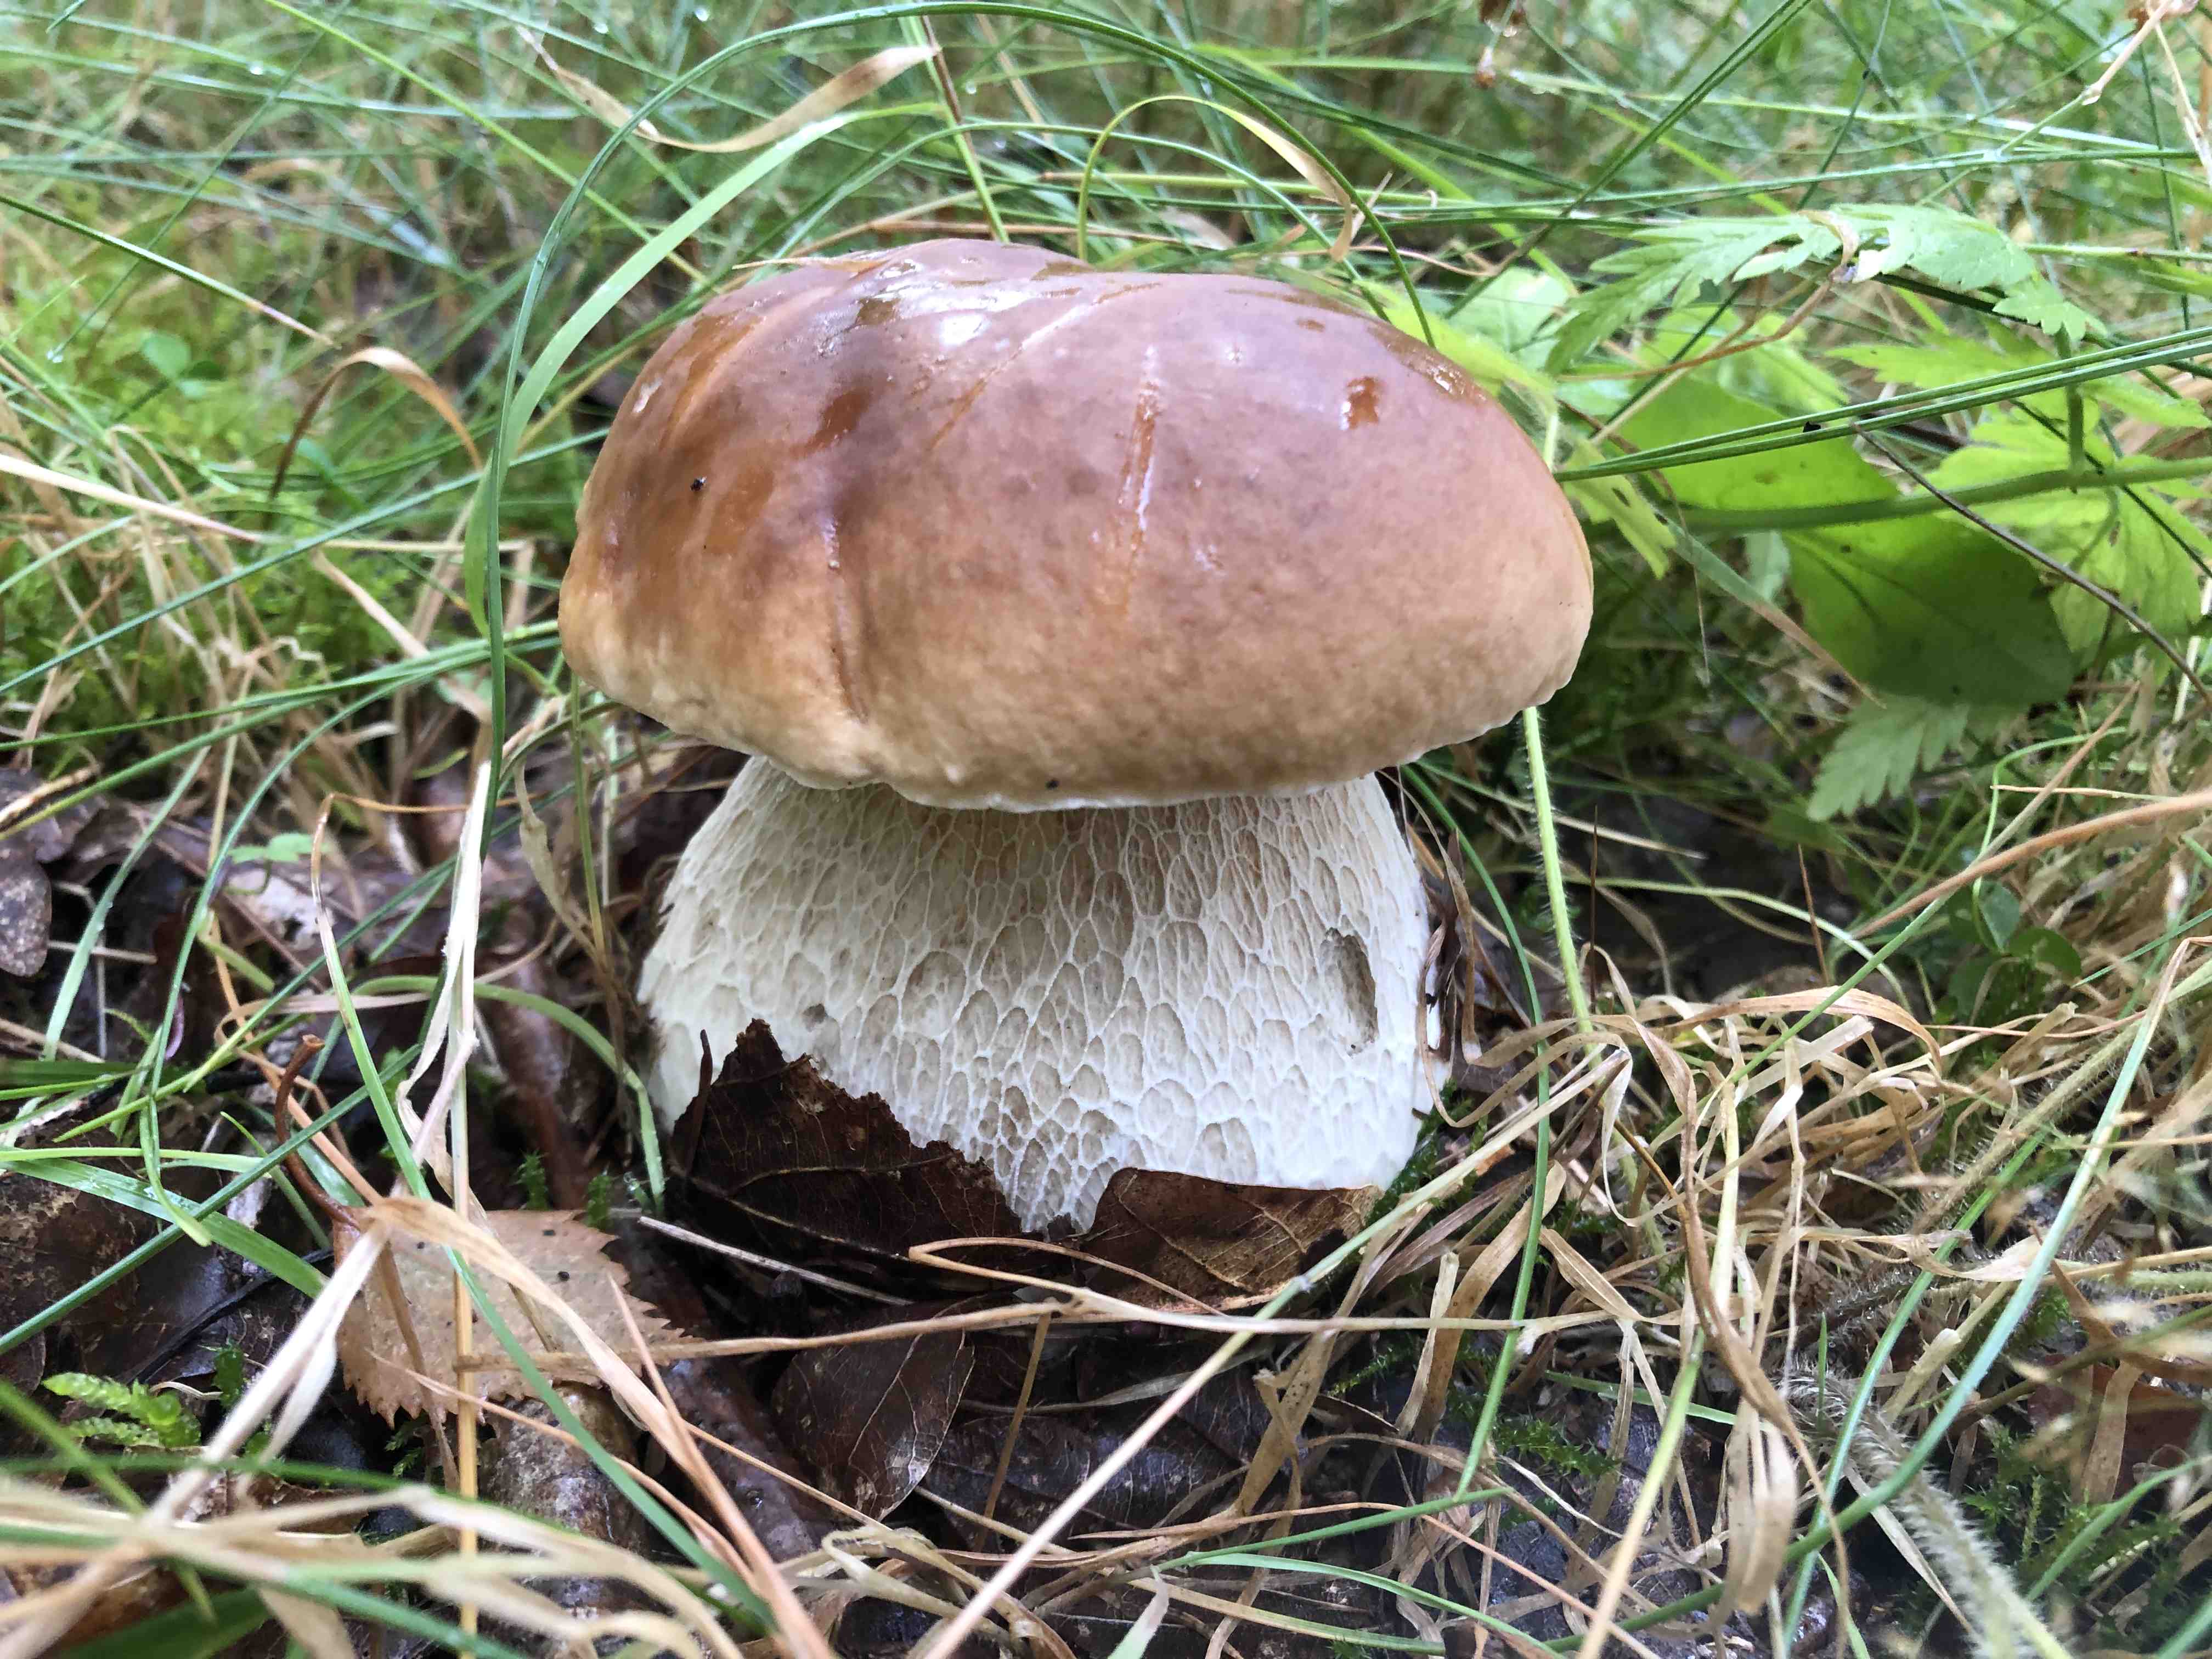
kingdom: Fungi
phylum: Basidiomycota
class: Agaricomycetes
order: Boletales
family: Boletaceae
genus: Boletus
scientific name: Boletus edulis
